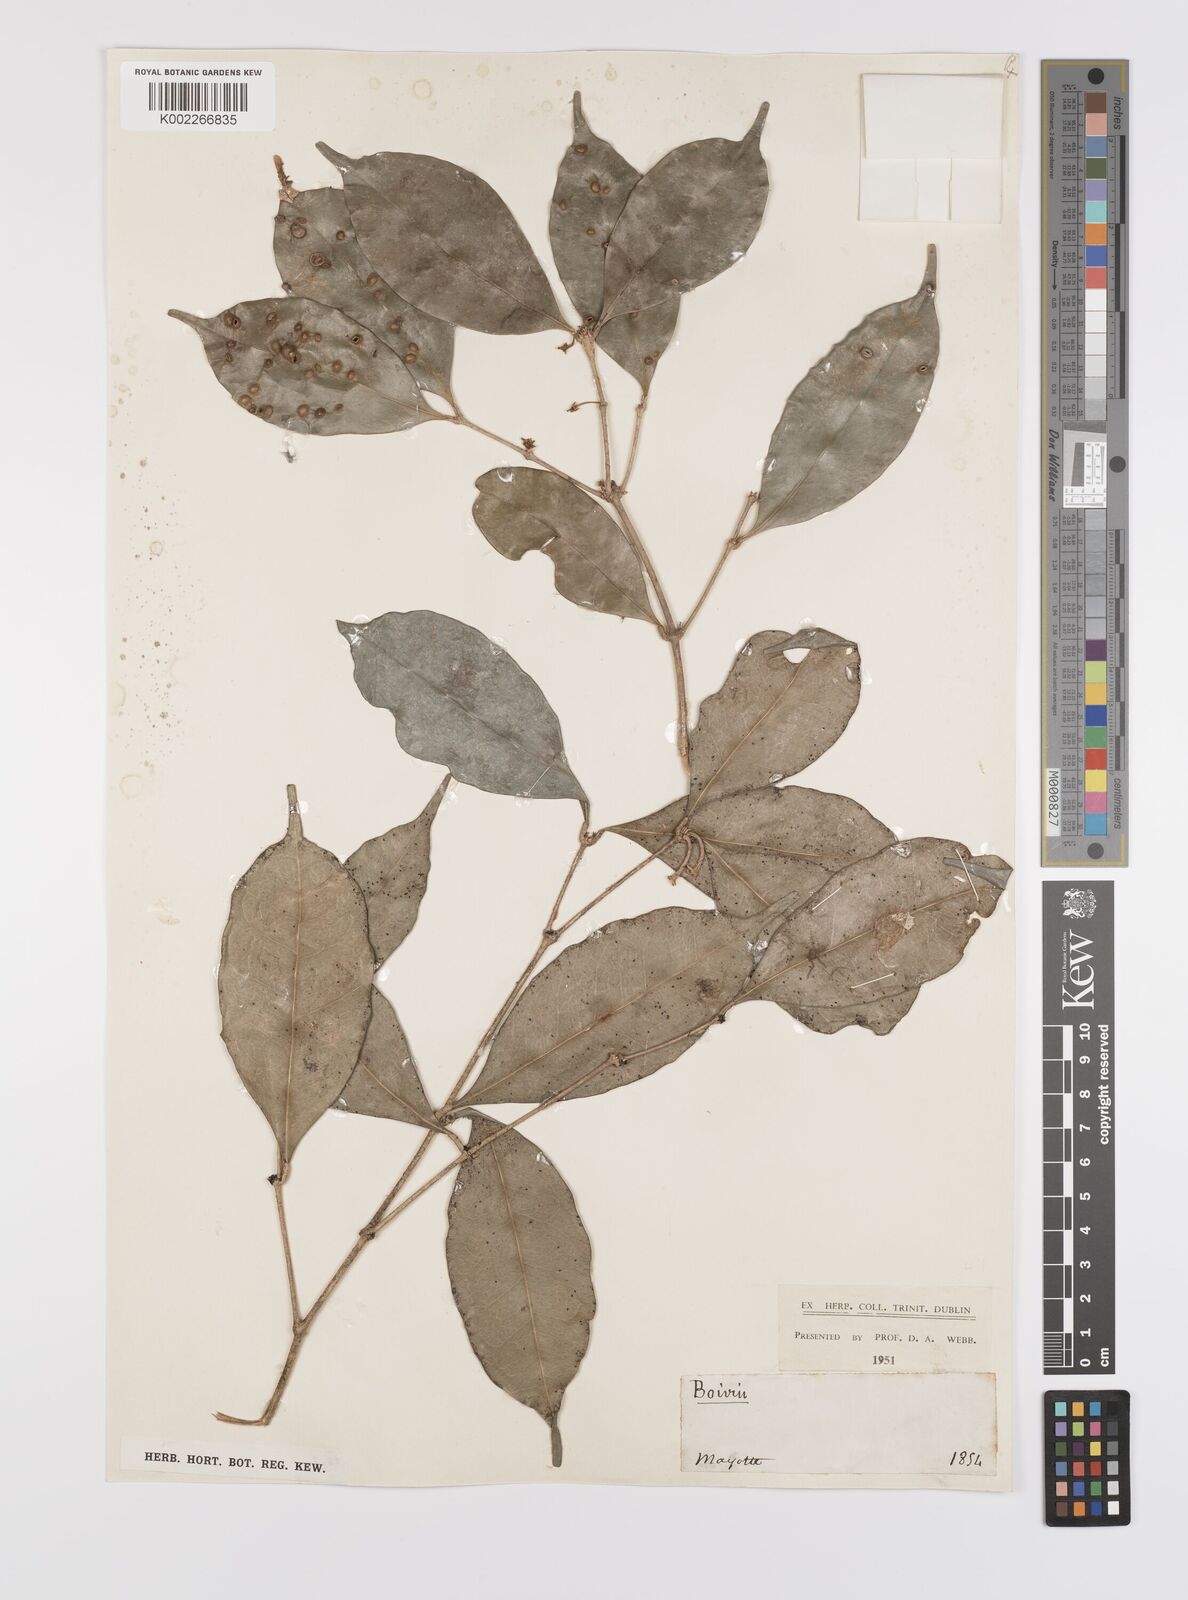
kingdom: Plantae
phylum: Tracheophyta
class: Magnoliopsida
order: Celastrales
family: Celastraceae
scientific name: Celastraceae
